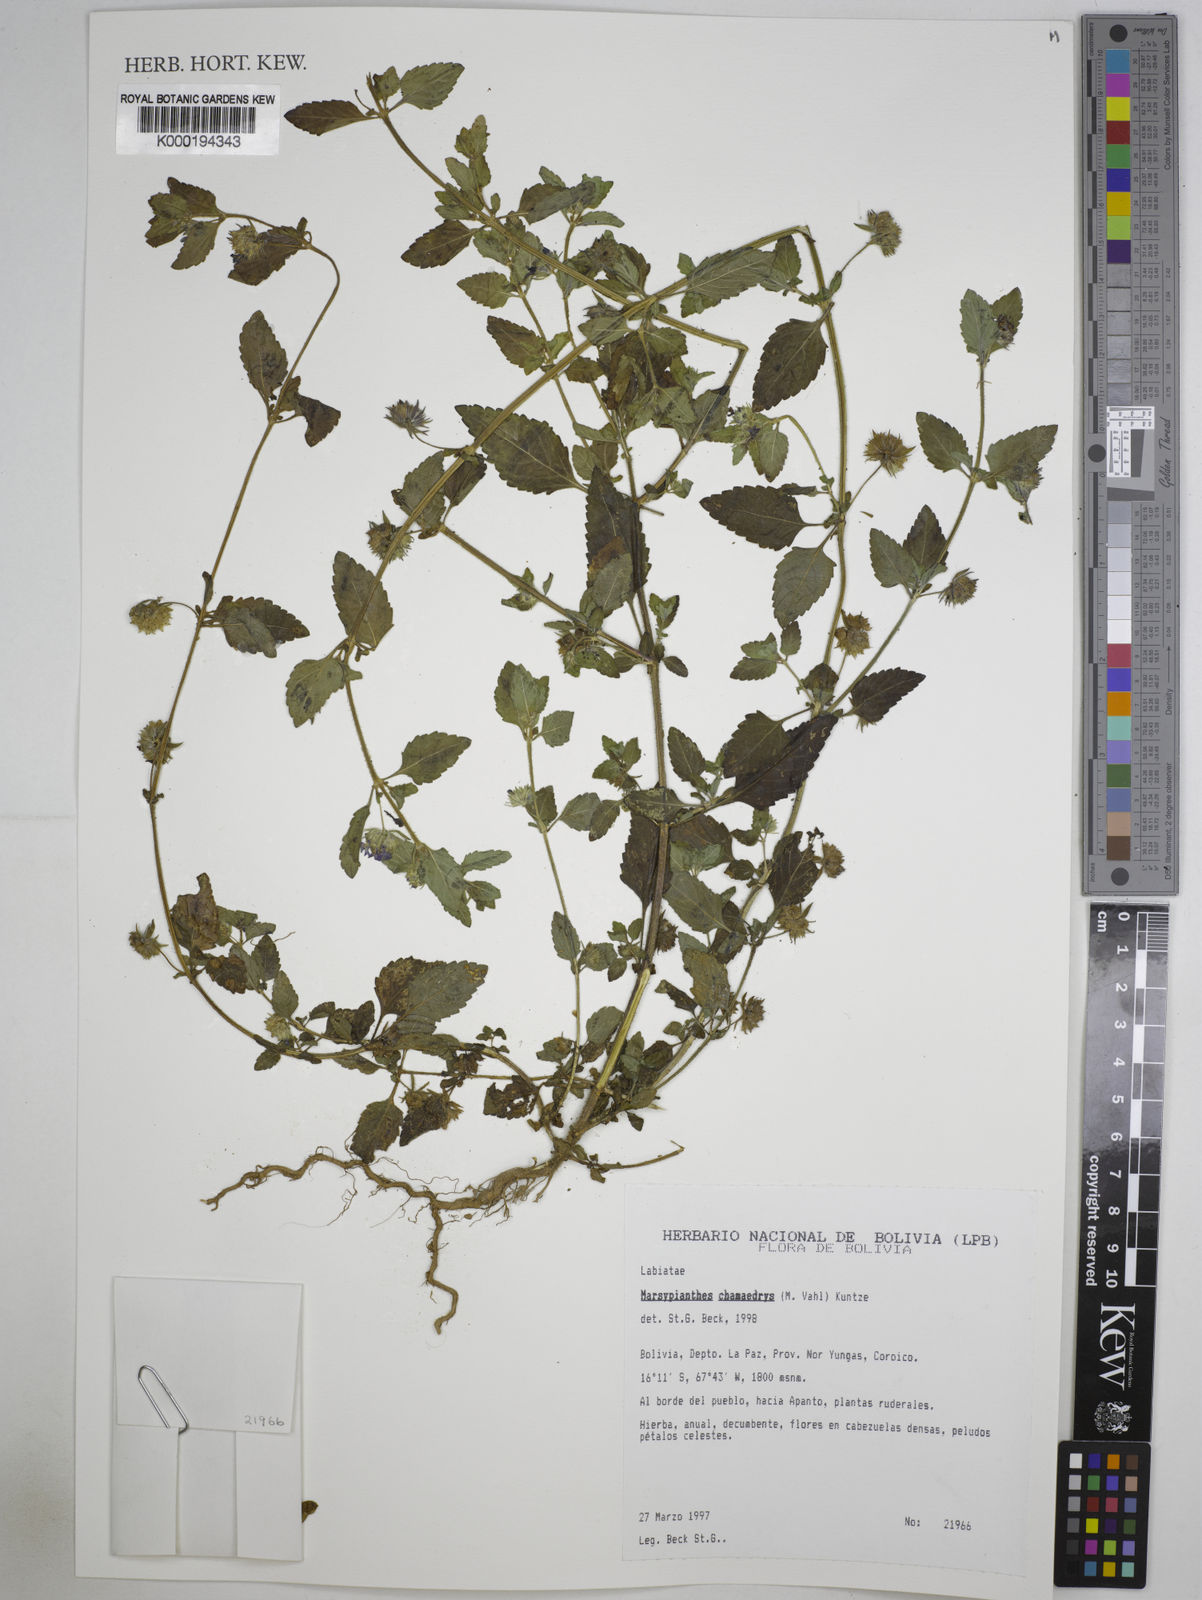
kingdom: Plantae
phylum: Tracheophyta
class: Magnoliopsida
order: Lamiales
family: Lamiaceae
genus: Marsypianthes
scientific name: Marsypianthes chamaedrys
